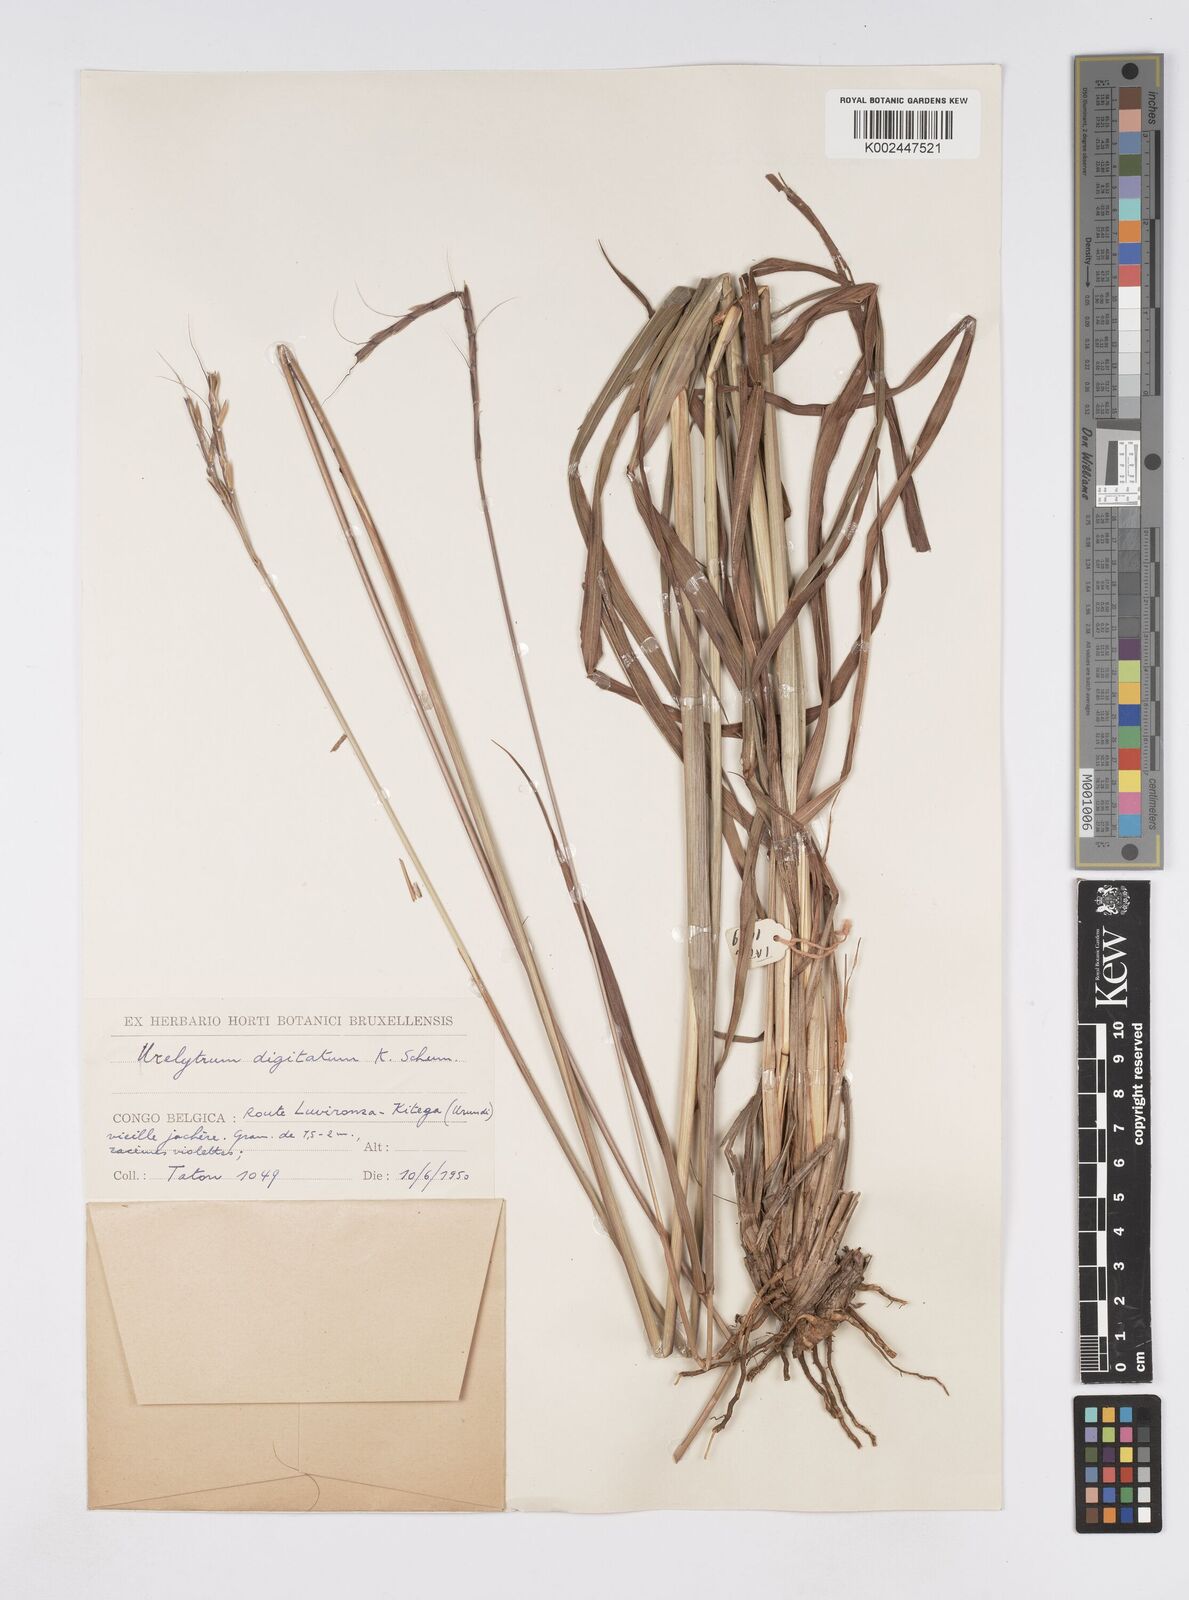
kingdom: Plantae
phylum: Tracheophyta
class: Liliopsida
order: Poales
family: Poaceae
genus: Urelytrum
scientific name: Urelytrum digitatum
